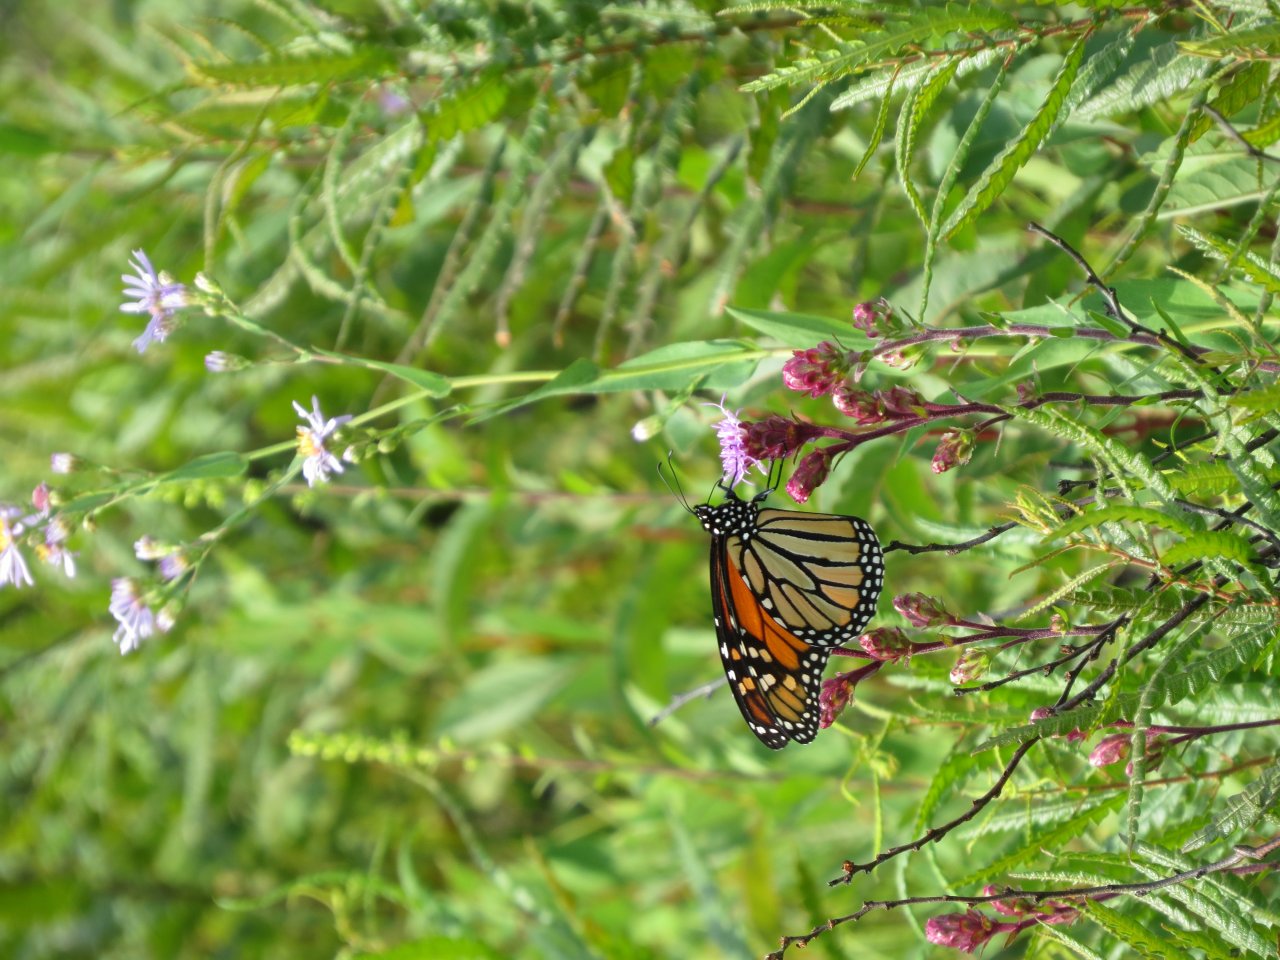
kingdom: Animalia
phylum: Arthropoda
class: Insecta
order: Lepidoptera
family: Nymphalidae
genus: Danaus
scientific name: Danaus plexippus
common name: Monarch
